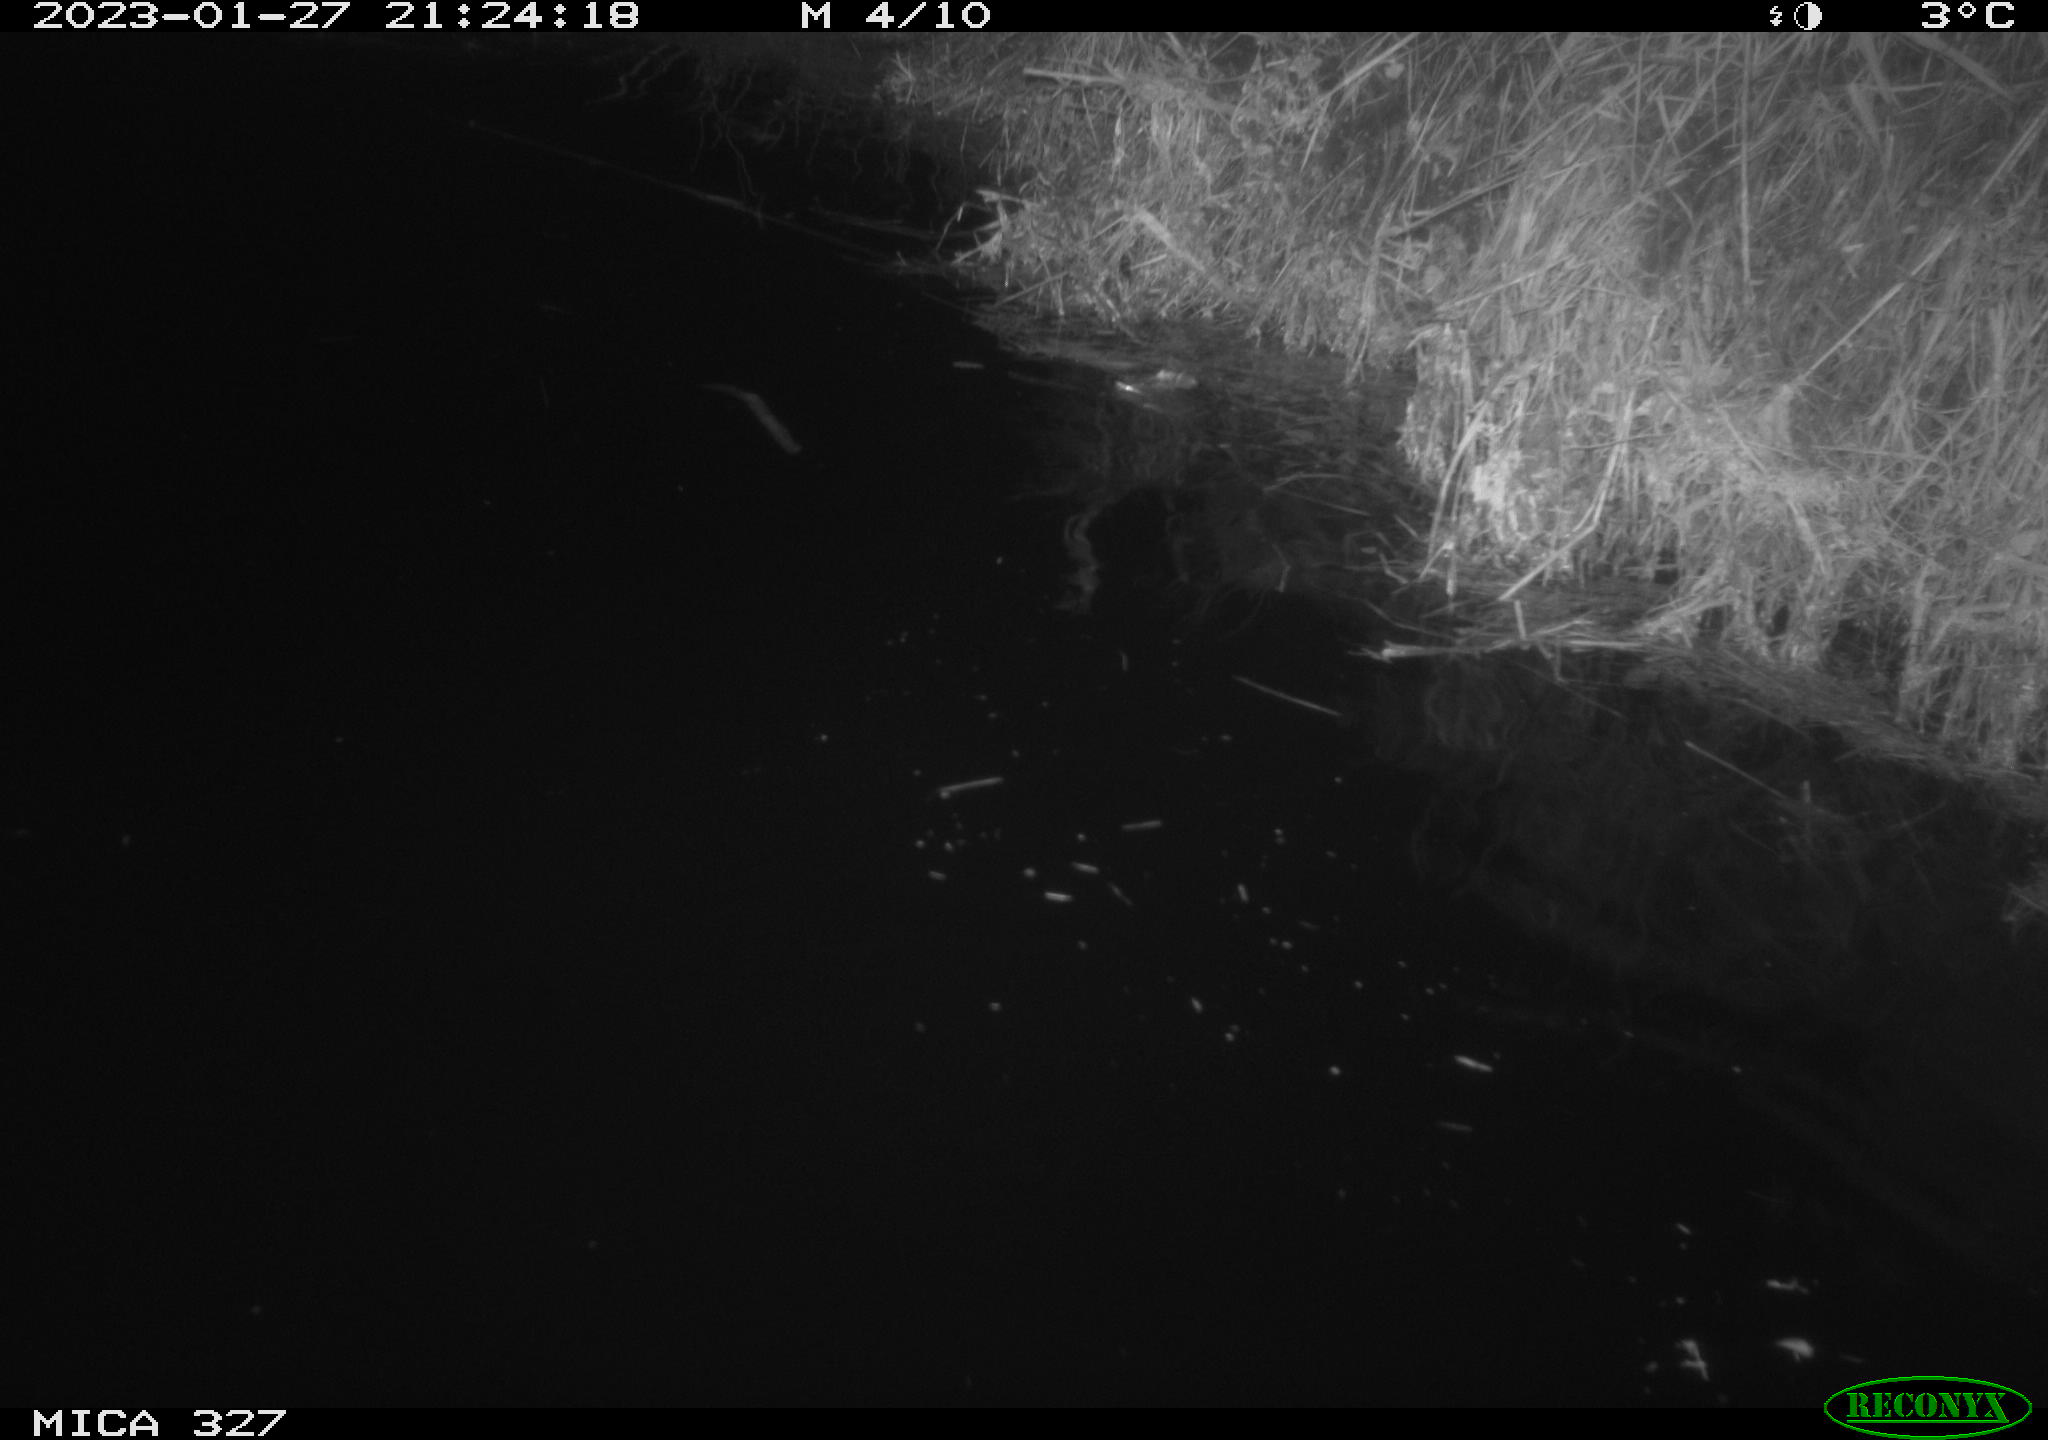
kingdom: Animalia
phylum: Chordata
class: Mammalia
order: Rodentia
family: Cricetidae
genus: Ondatra
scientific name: Ondatra zibethicus
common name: Muskrat
